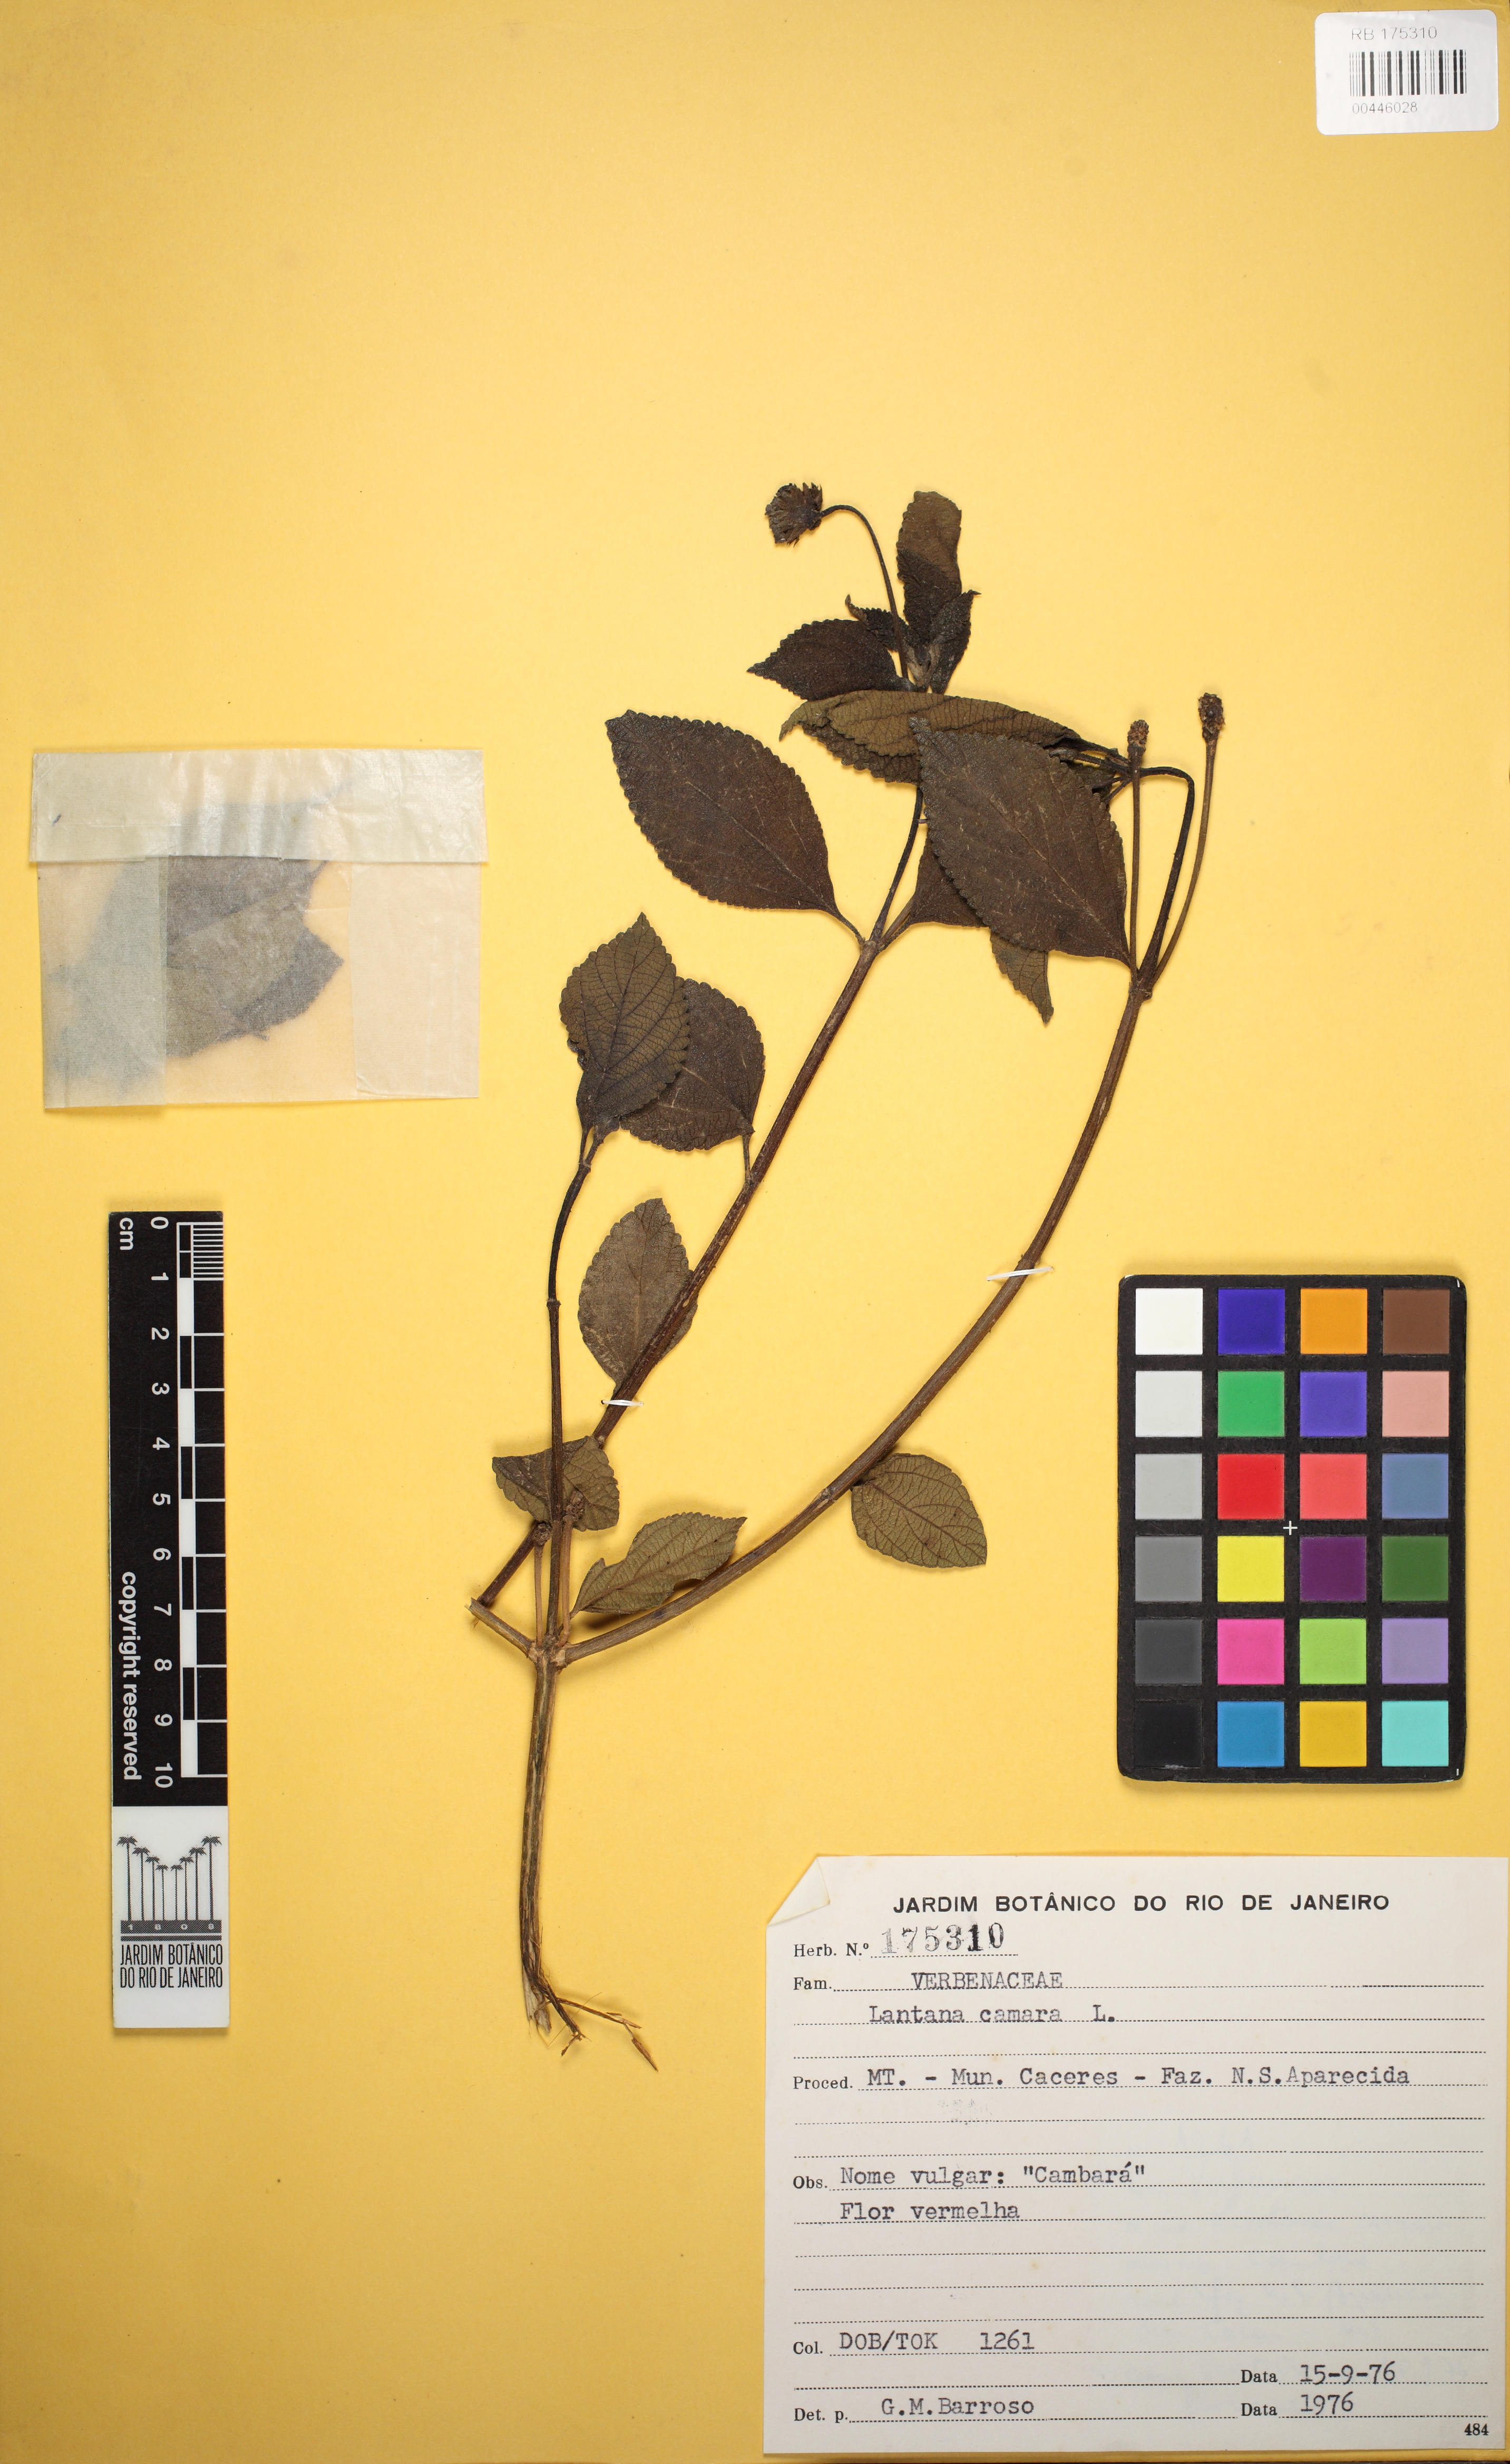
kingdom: Plantae
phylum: Tracheophyta
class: Magnoliopsida
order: Lamiales
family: Verbenaceae
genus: Lantana
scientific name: Lantana camara
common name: Lantana
